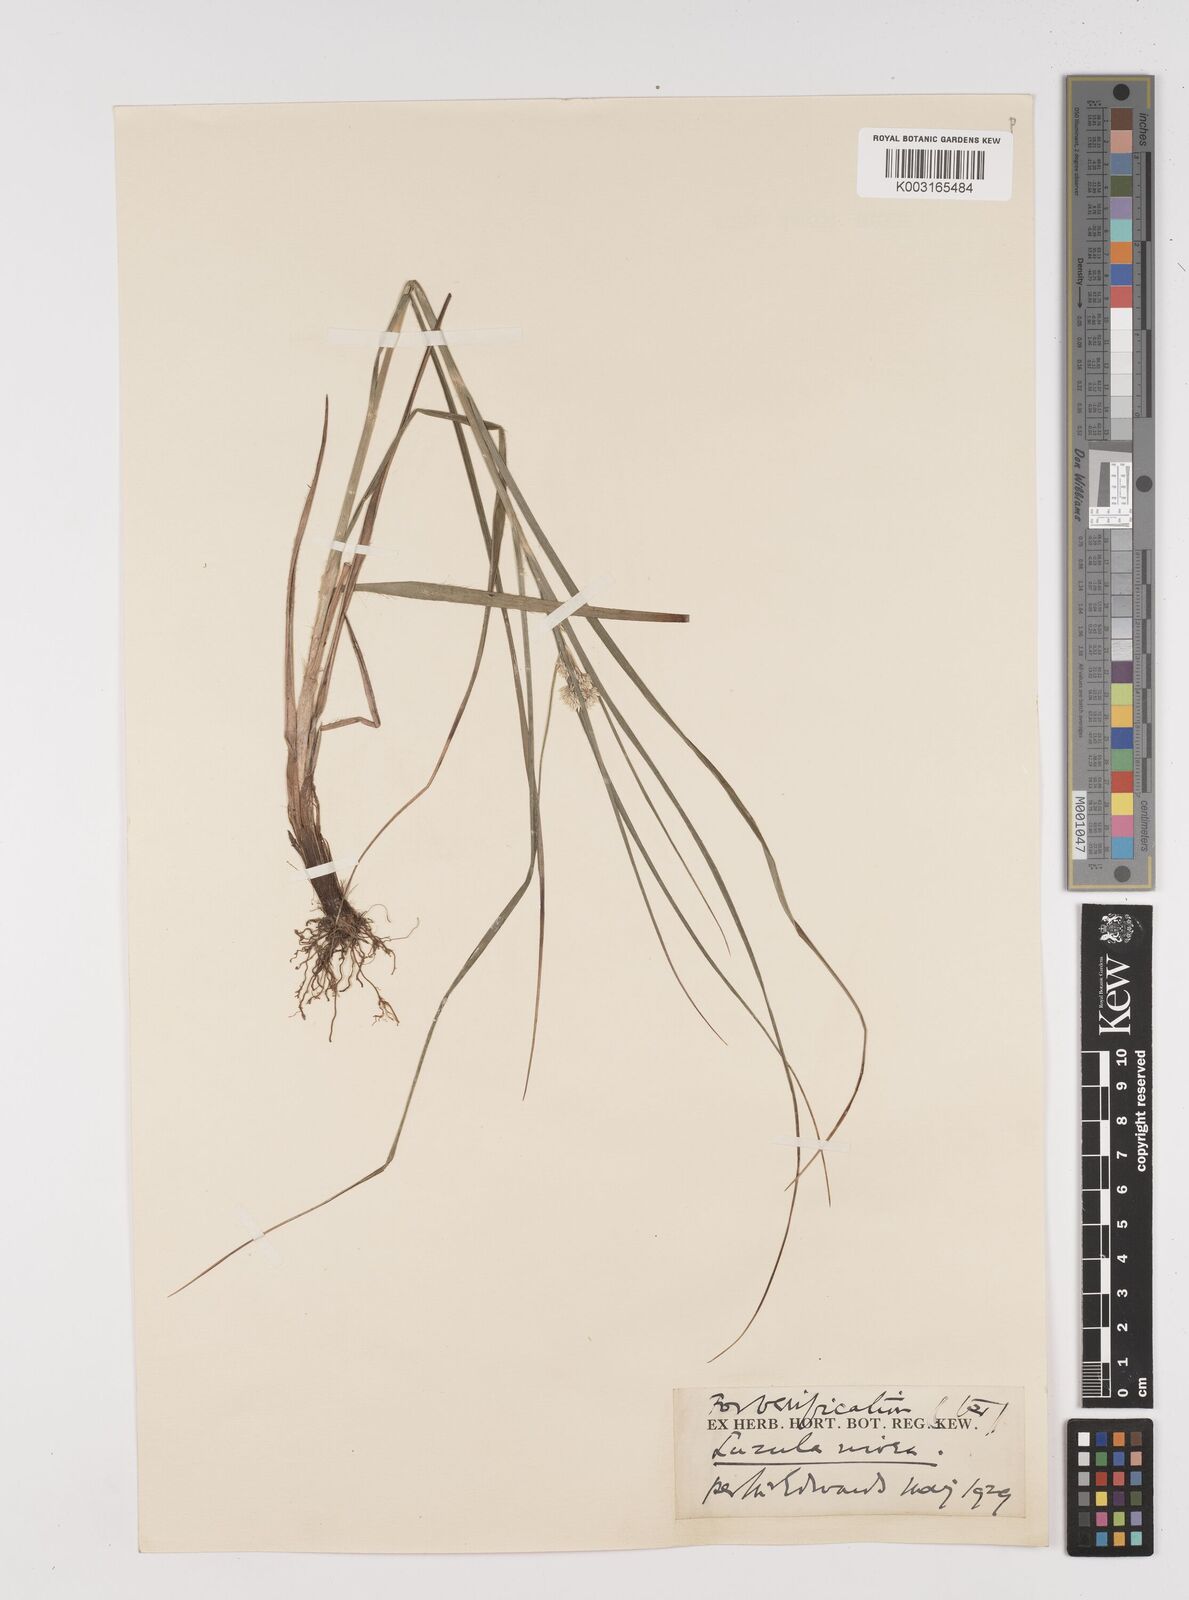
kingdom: Plantae
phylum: Tracheophyta
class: Liliopsida
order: Poales
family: Juncaceae
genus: Luzula
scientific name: Luzula nivea
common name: Snow-white wood-rush
